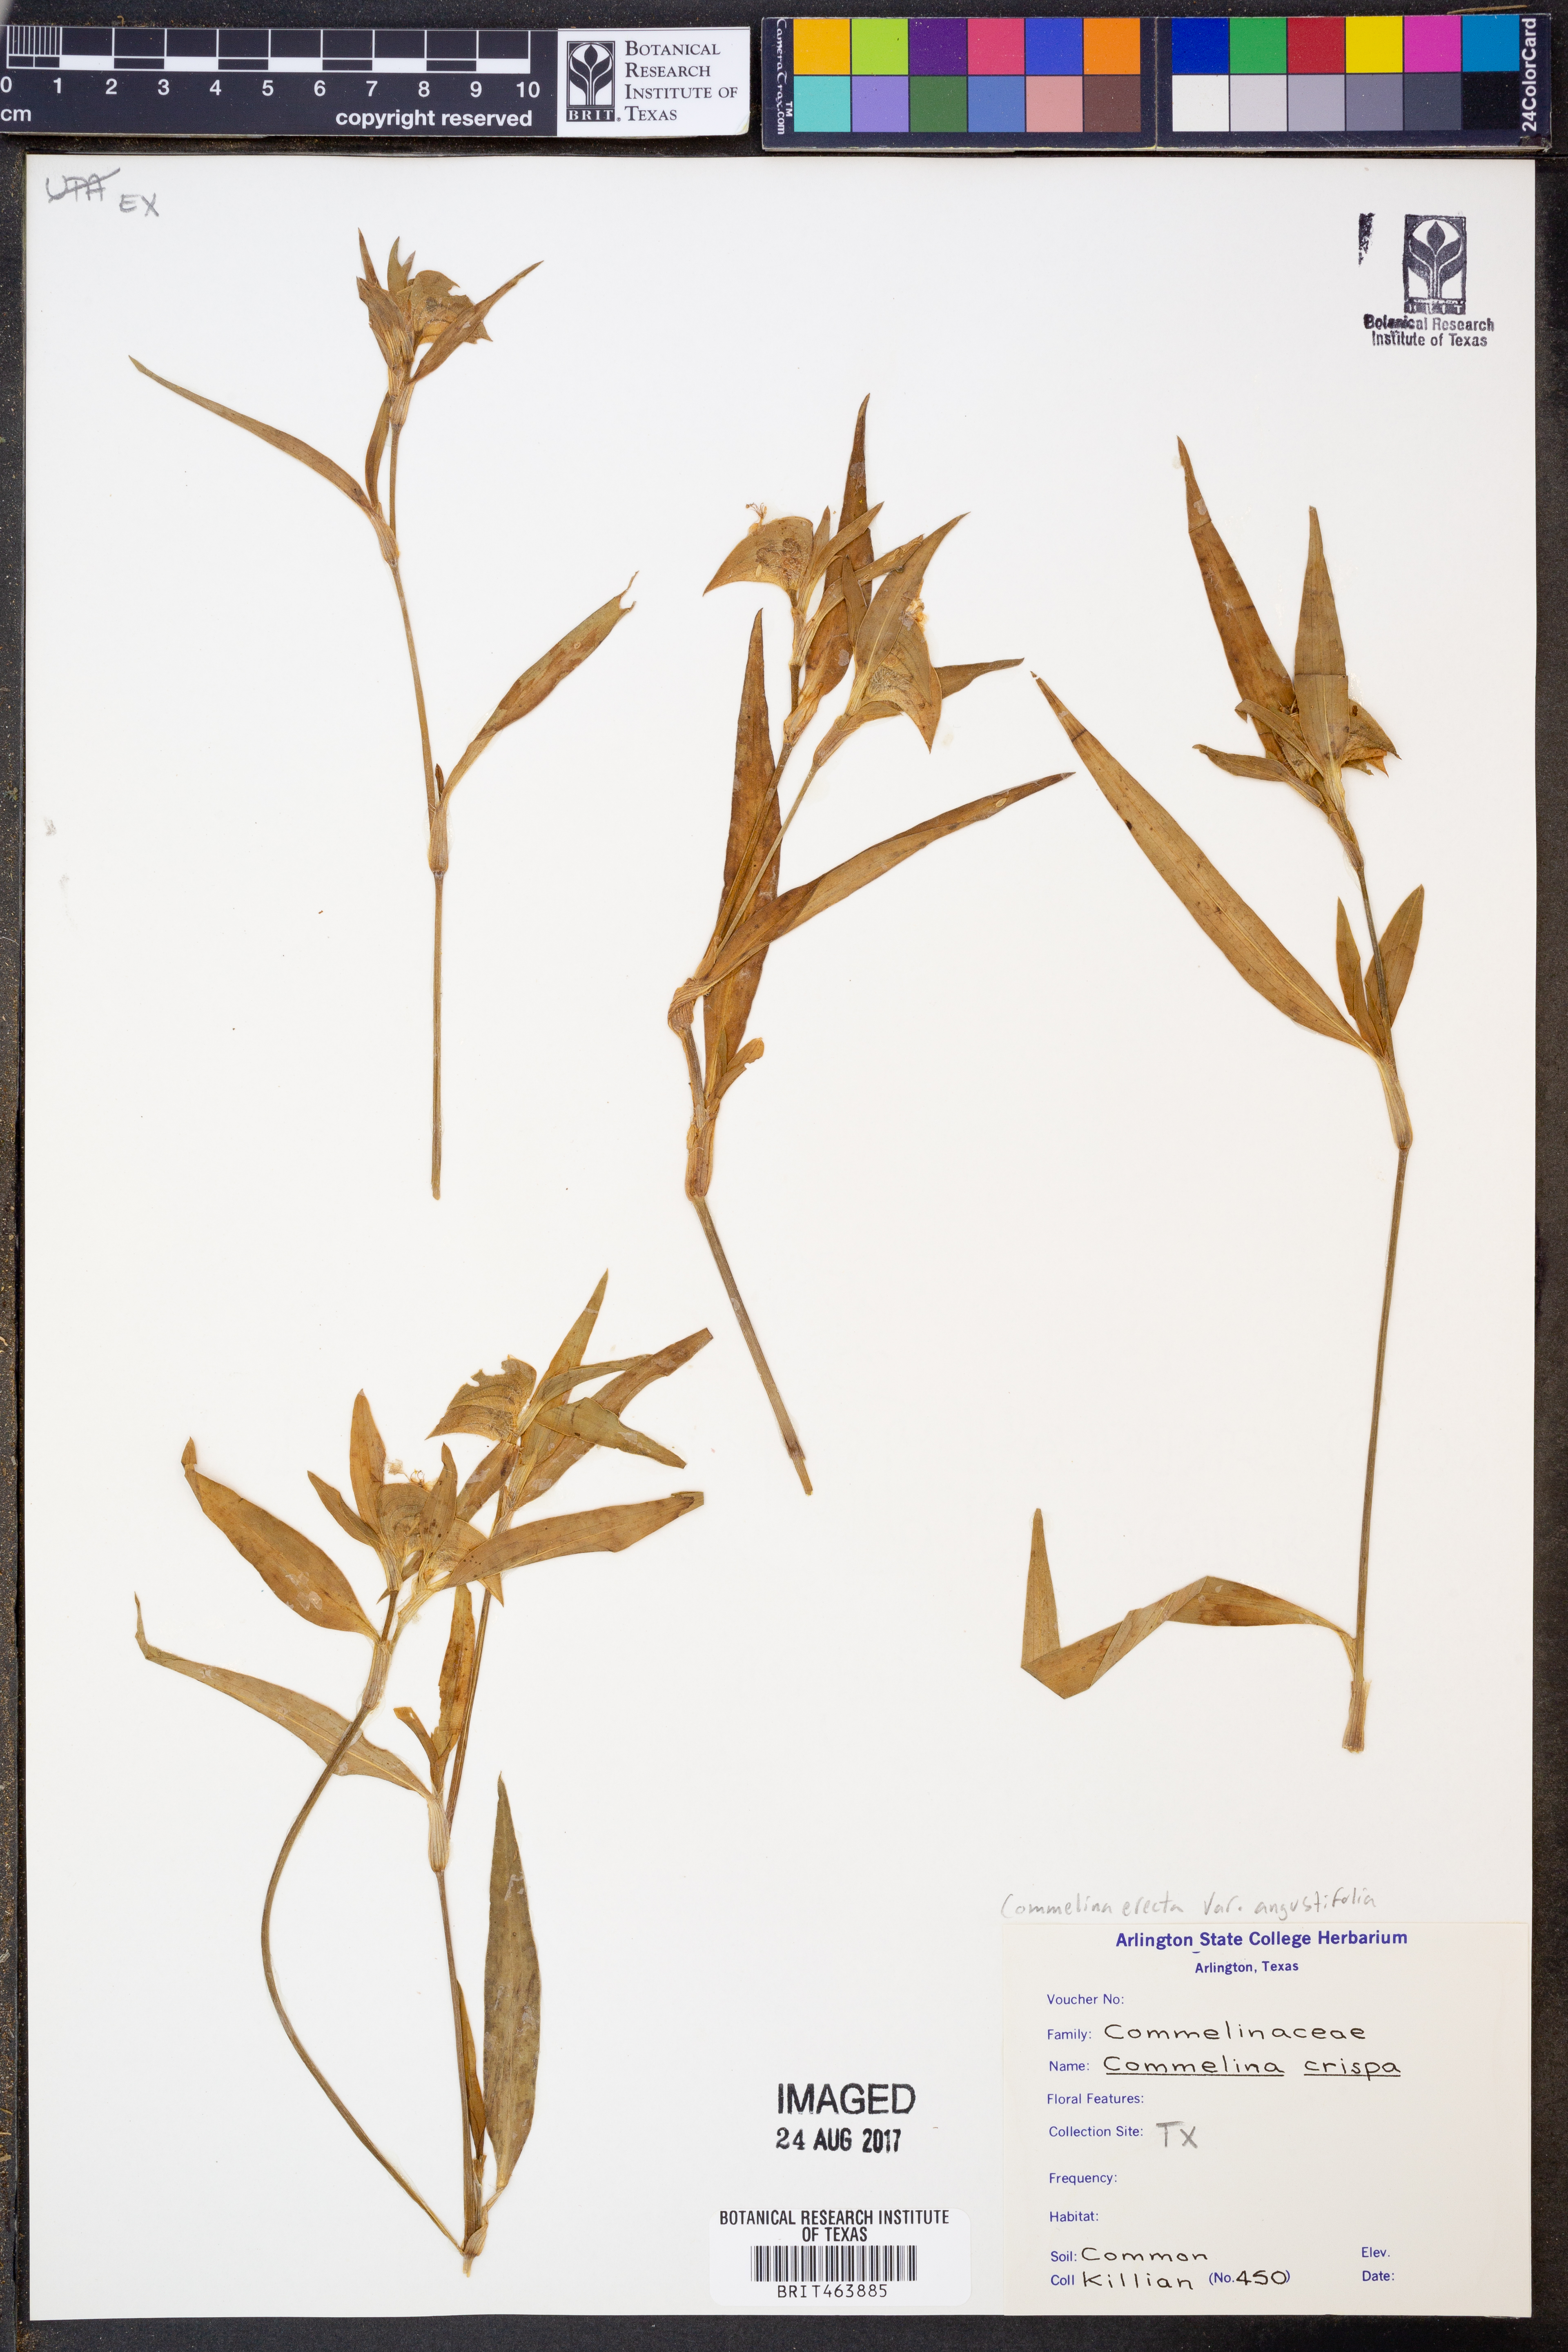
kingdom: Plantae
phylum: Tracheophyta
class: Liliopsida
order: Commelinales
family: Commelinaceae
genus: Commelina
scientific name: Commelina erecta
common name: Blousel blommetjie
